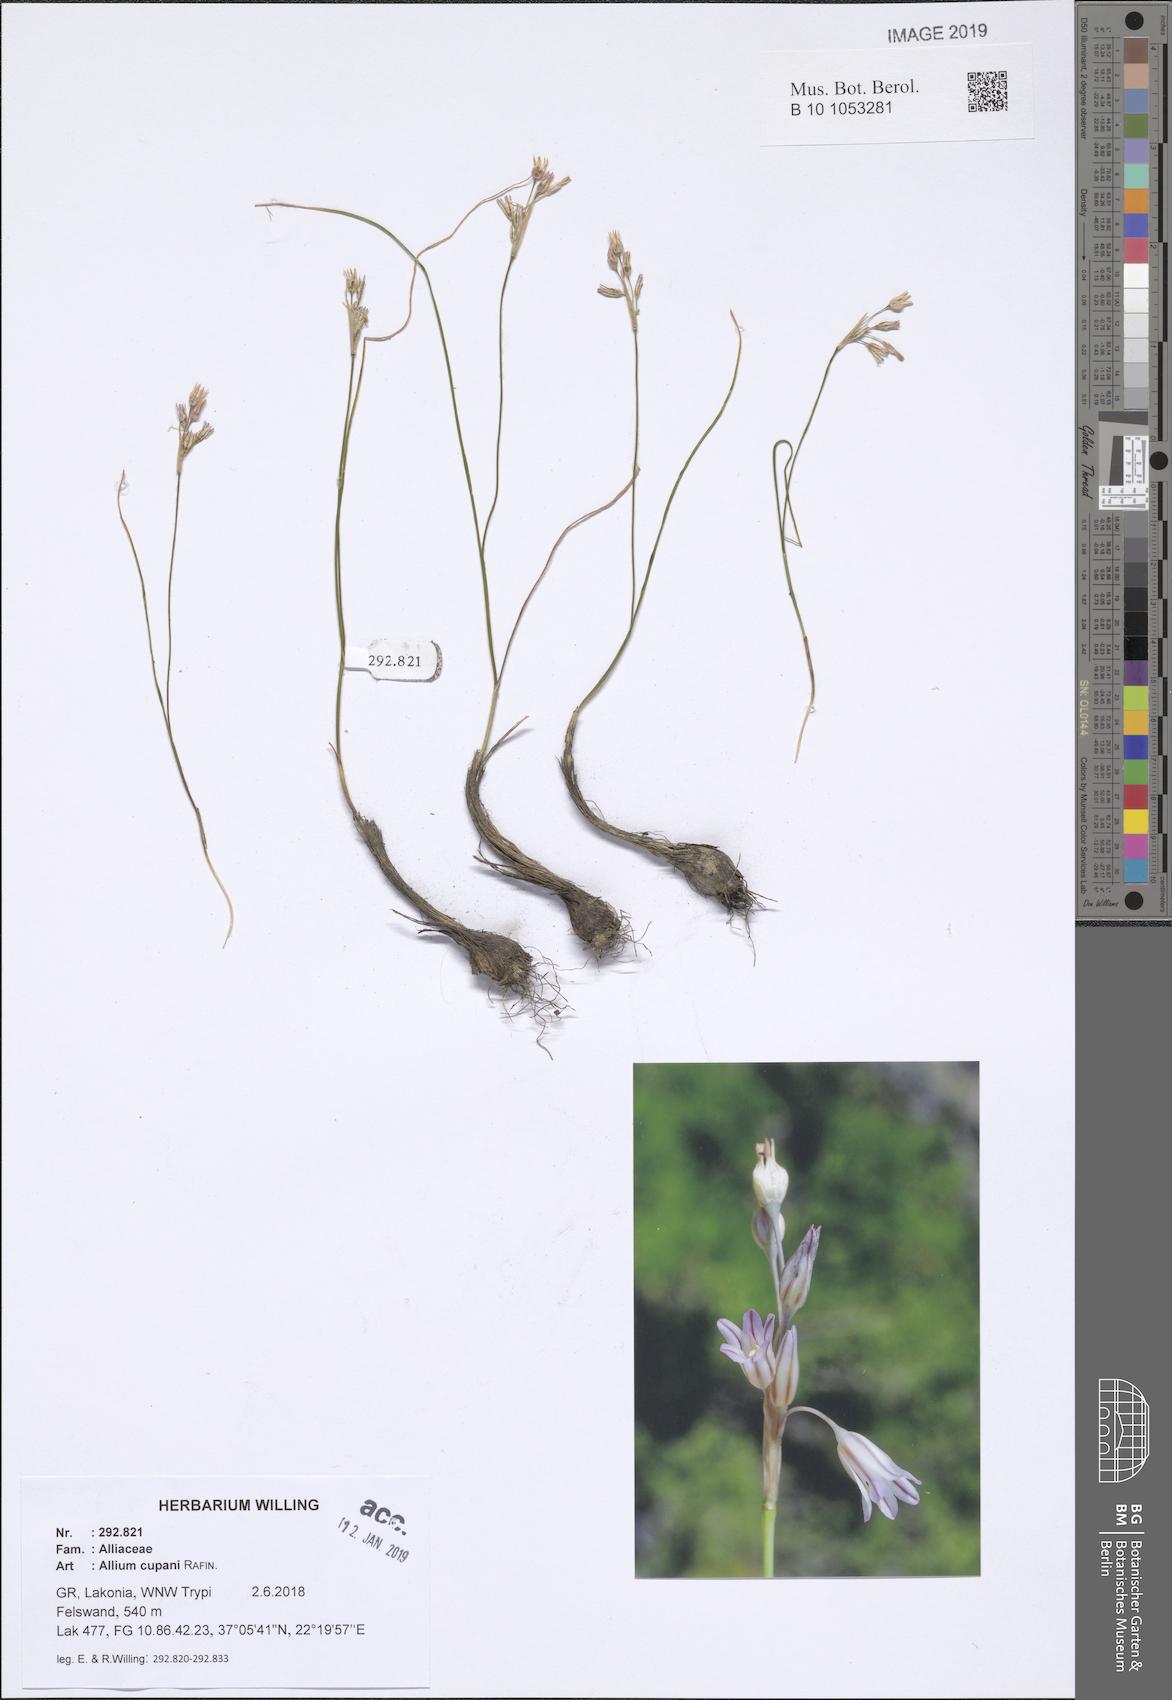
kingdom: Plantae
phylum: Tracheophyta
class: Liliopsida
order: Asparagales
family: Amaryllidaceae
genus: Allium
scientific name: Allium cupani
